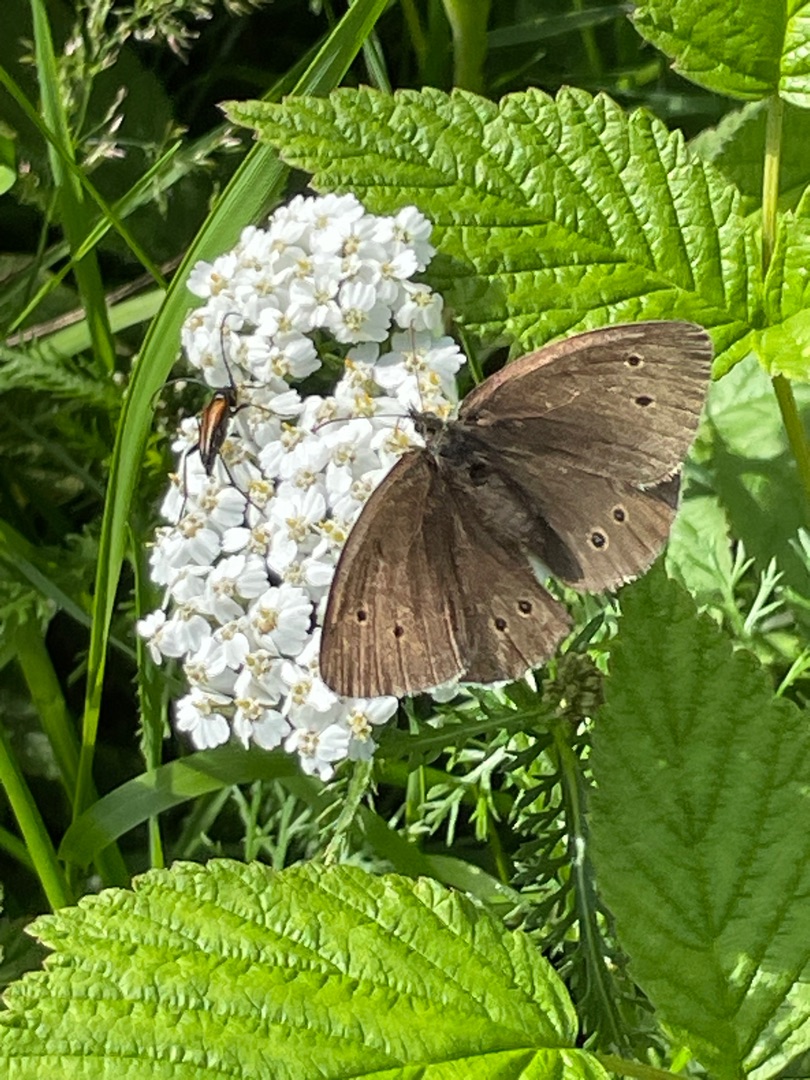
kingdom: Animalia
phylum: Arthropoda
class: Insecta
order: Lepidoptera
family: Nymphalidae
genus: Aphantopus
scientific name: Aphantopus hyperantus
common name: Engrandøje
